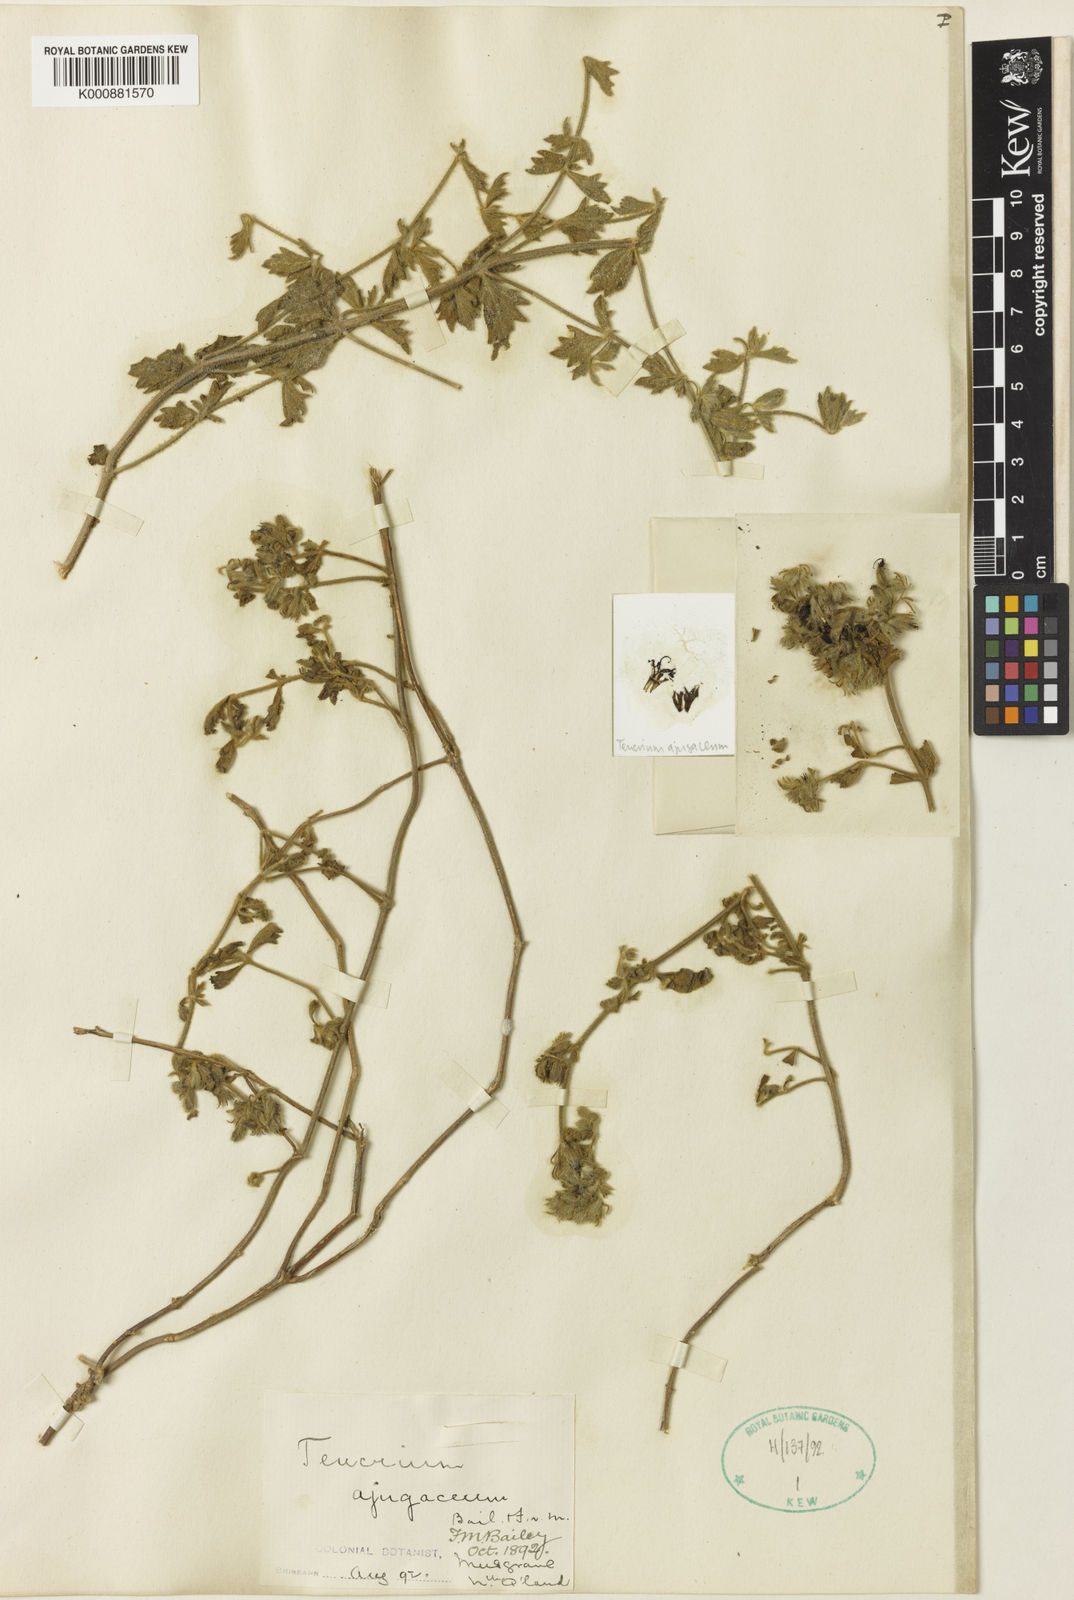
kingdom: Plantae
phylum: Tracheophyta
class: Magnoliopsida
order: Lamiales
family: Lamiaceae
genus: Anisomeles
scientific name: Anisomeles ajugacea
